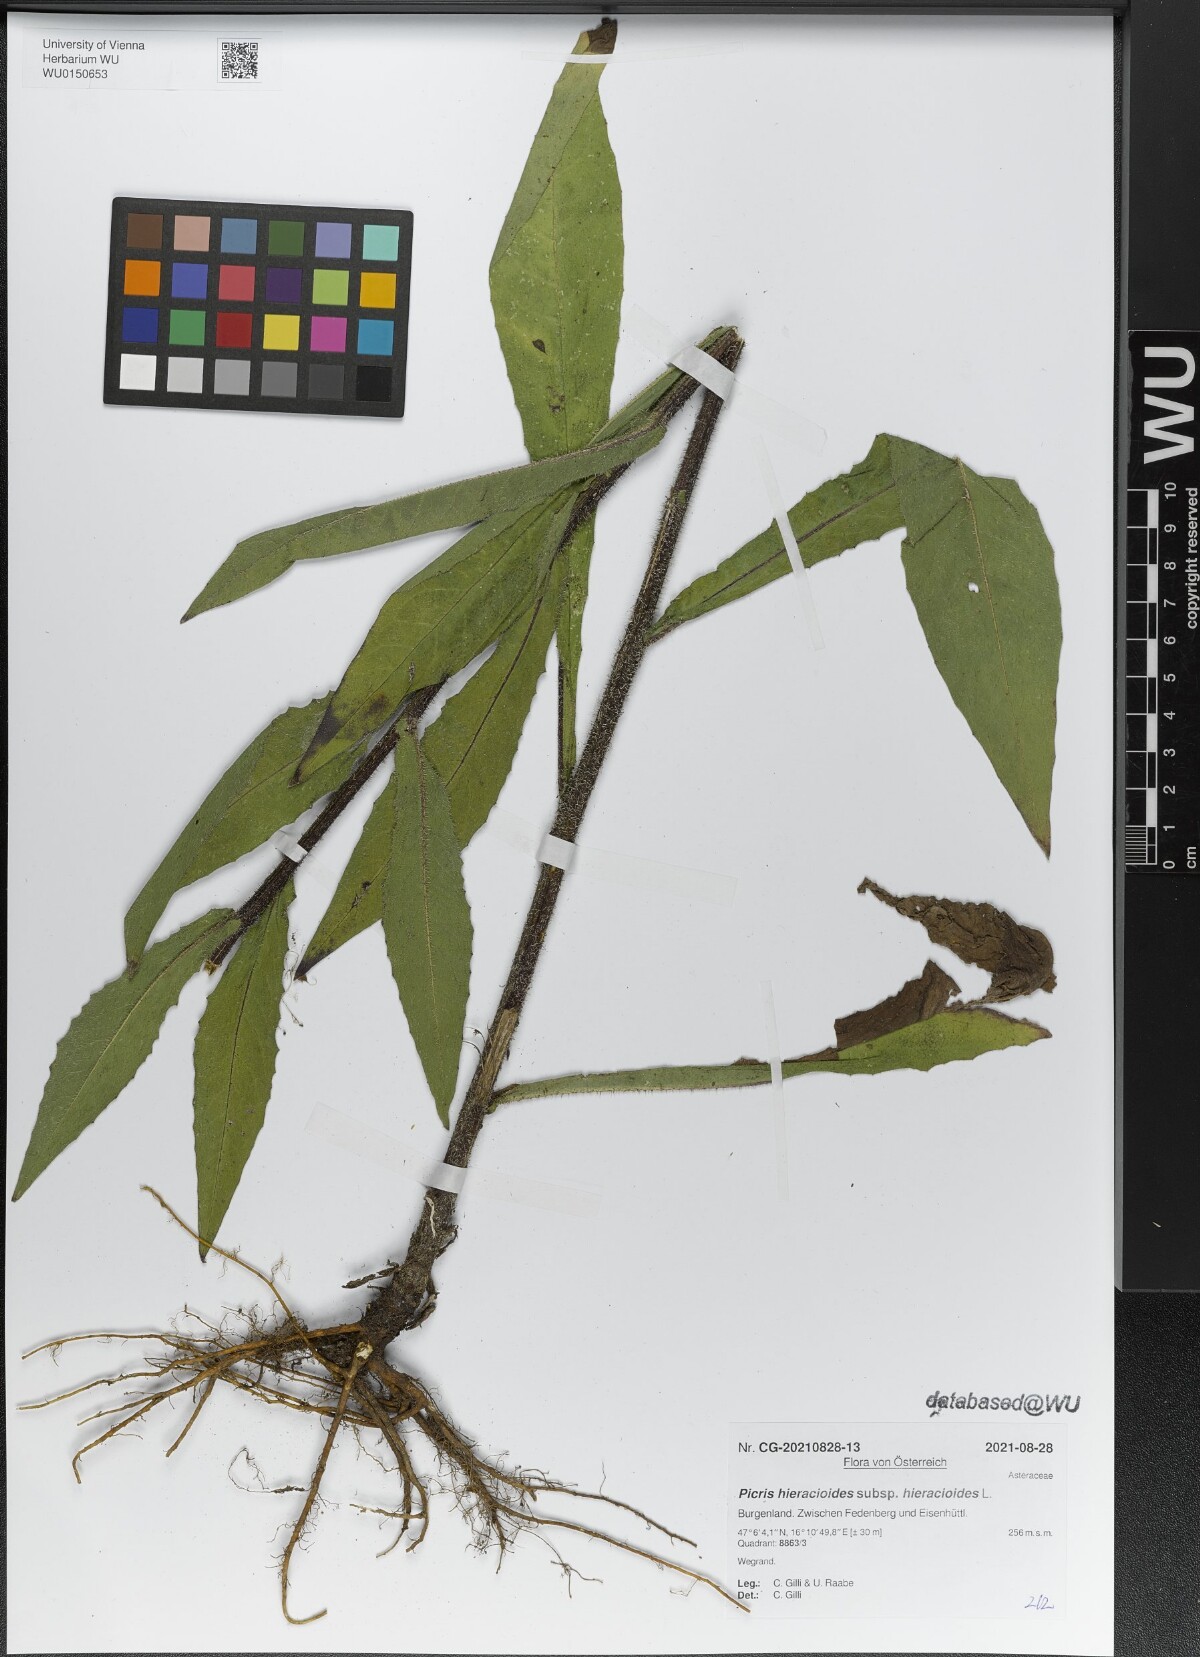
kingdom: Plantae
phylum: Tracheophyta
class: Magnoliopsida
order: Asterales
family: Asteraceae
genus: Picris
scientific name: Picris hieracioides
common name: Hawkweed oxtongue
